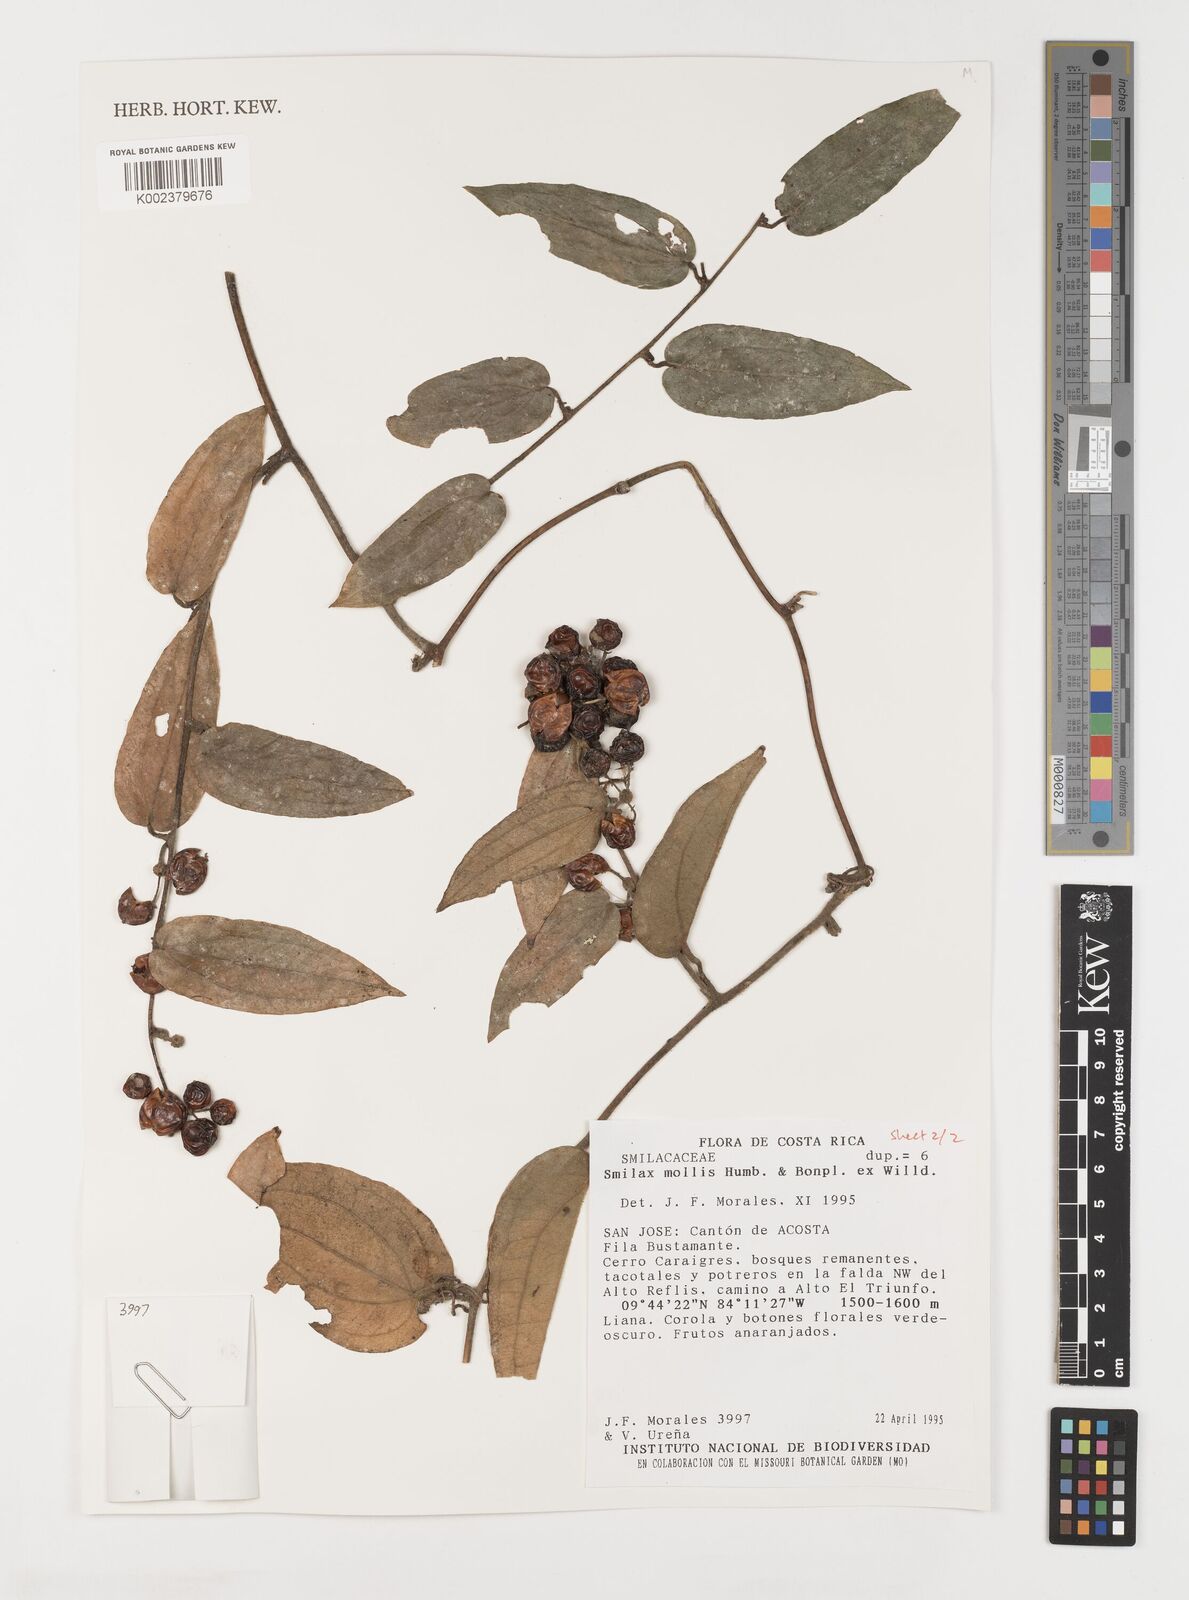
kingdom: Plantae
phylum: Tracheophyta
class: Liliopsida
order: Liliales
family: Smilacaceae
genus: Smilax
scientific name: Smilax mollis
